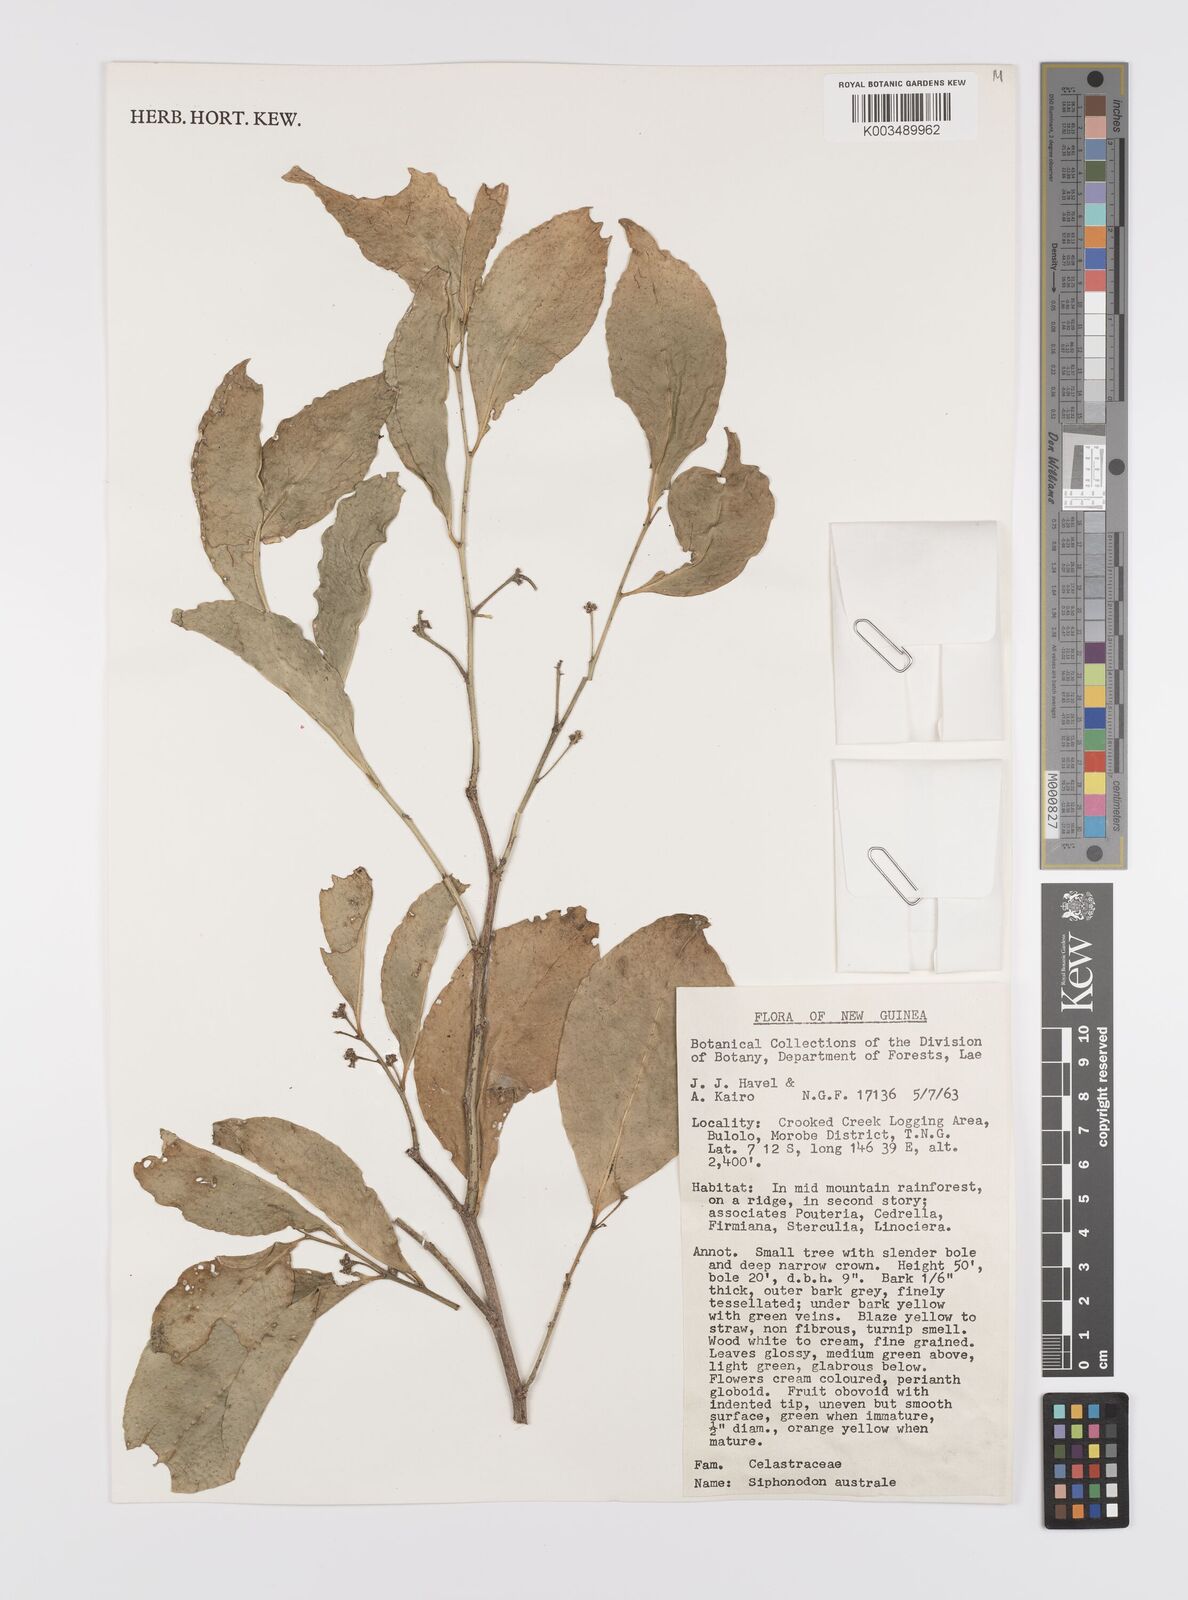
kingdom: Plantae
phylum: Tracheophyta
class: Magnoliopsida
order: Celastrales
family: Celastraceae
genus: Siphonodon
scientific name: Siphonodon
